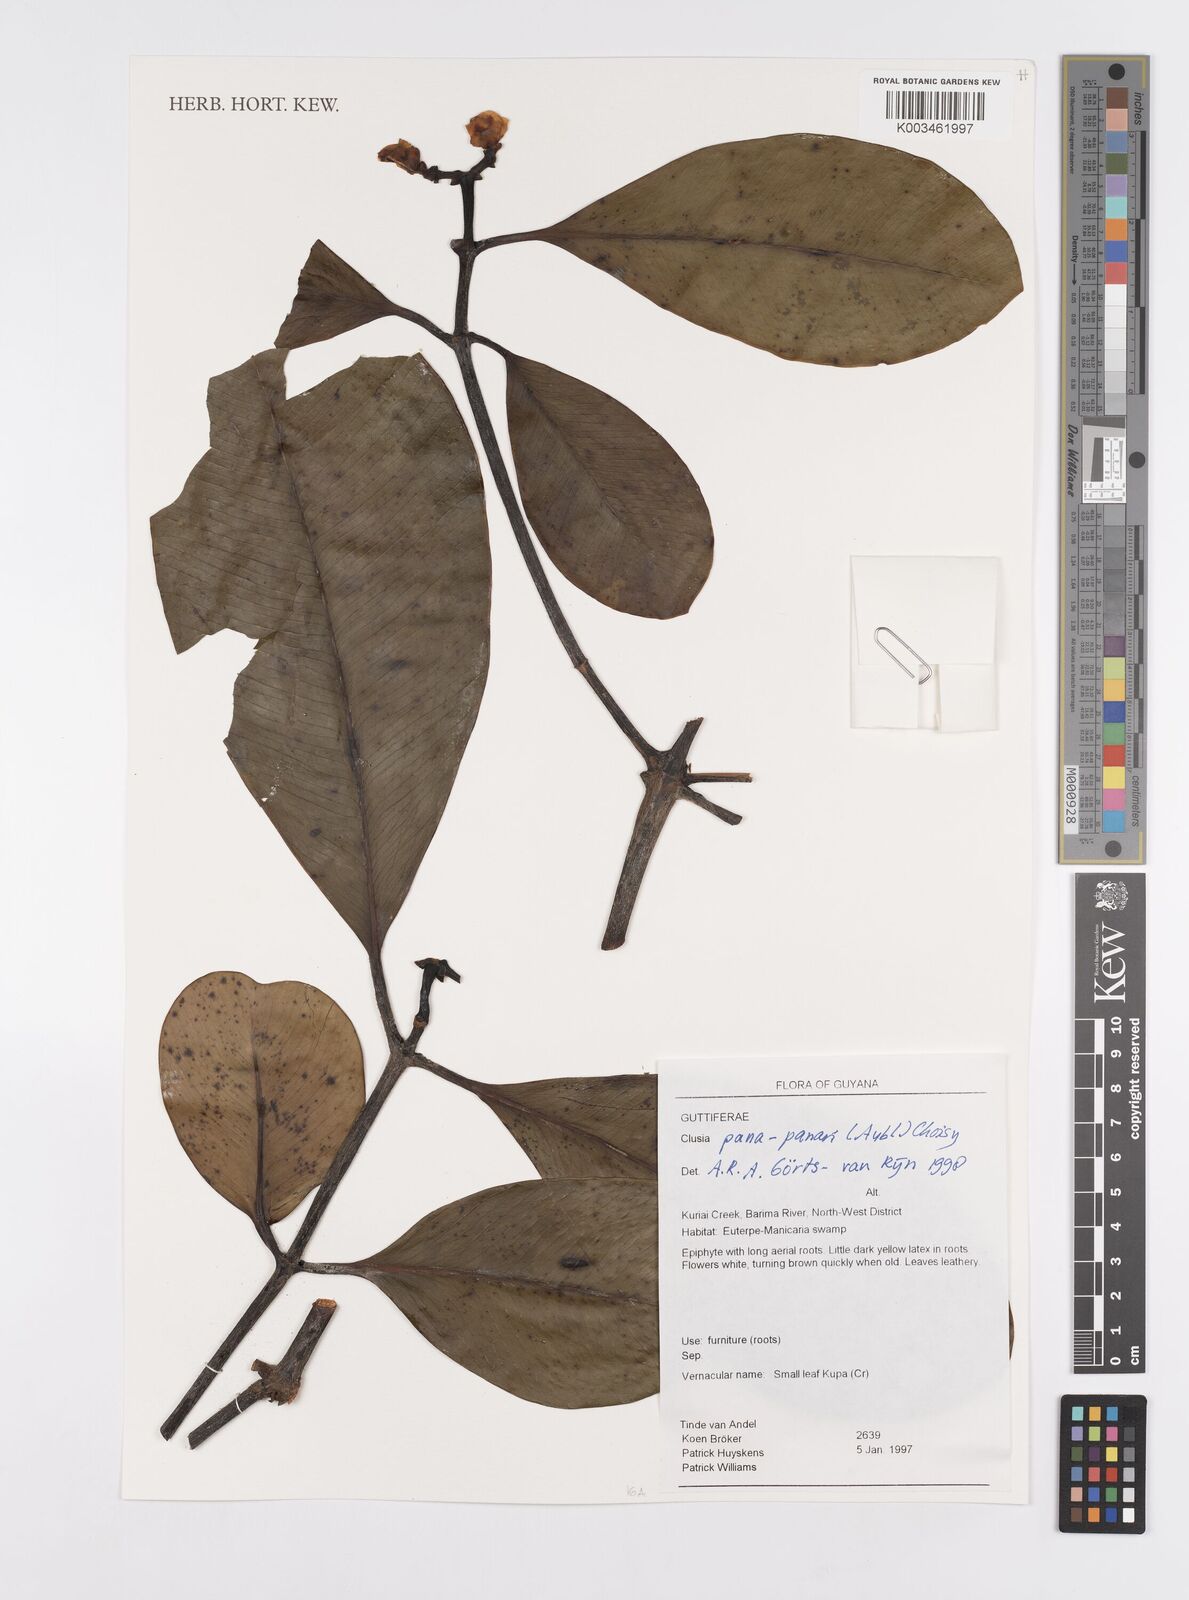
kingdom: Plantae
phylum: Tracheophyta
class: Magnoliopsida
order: Malpighiales
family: Clusiaceae
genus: Clusia
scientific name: Clusia panapanari
